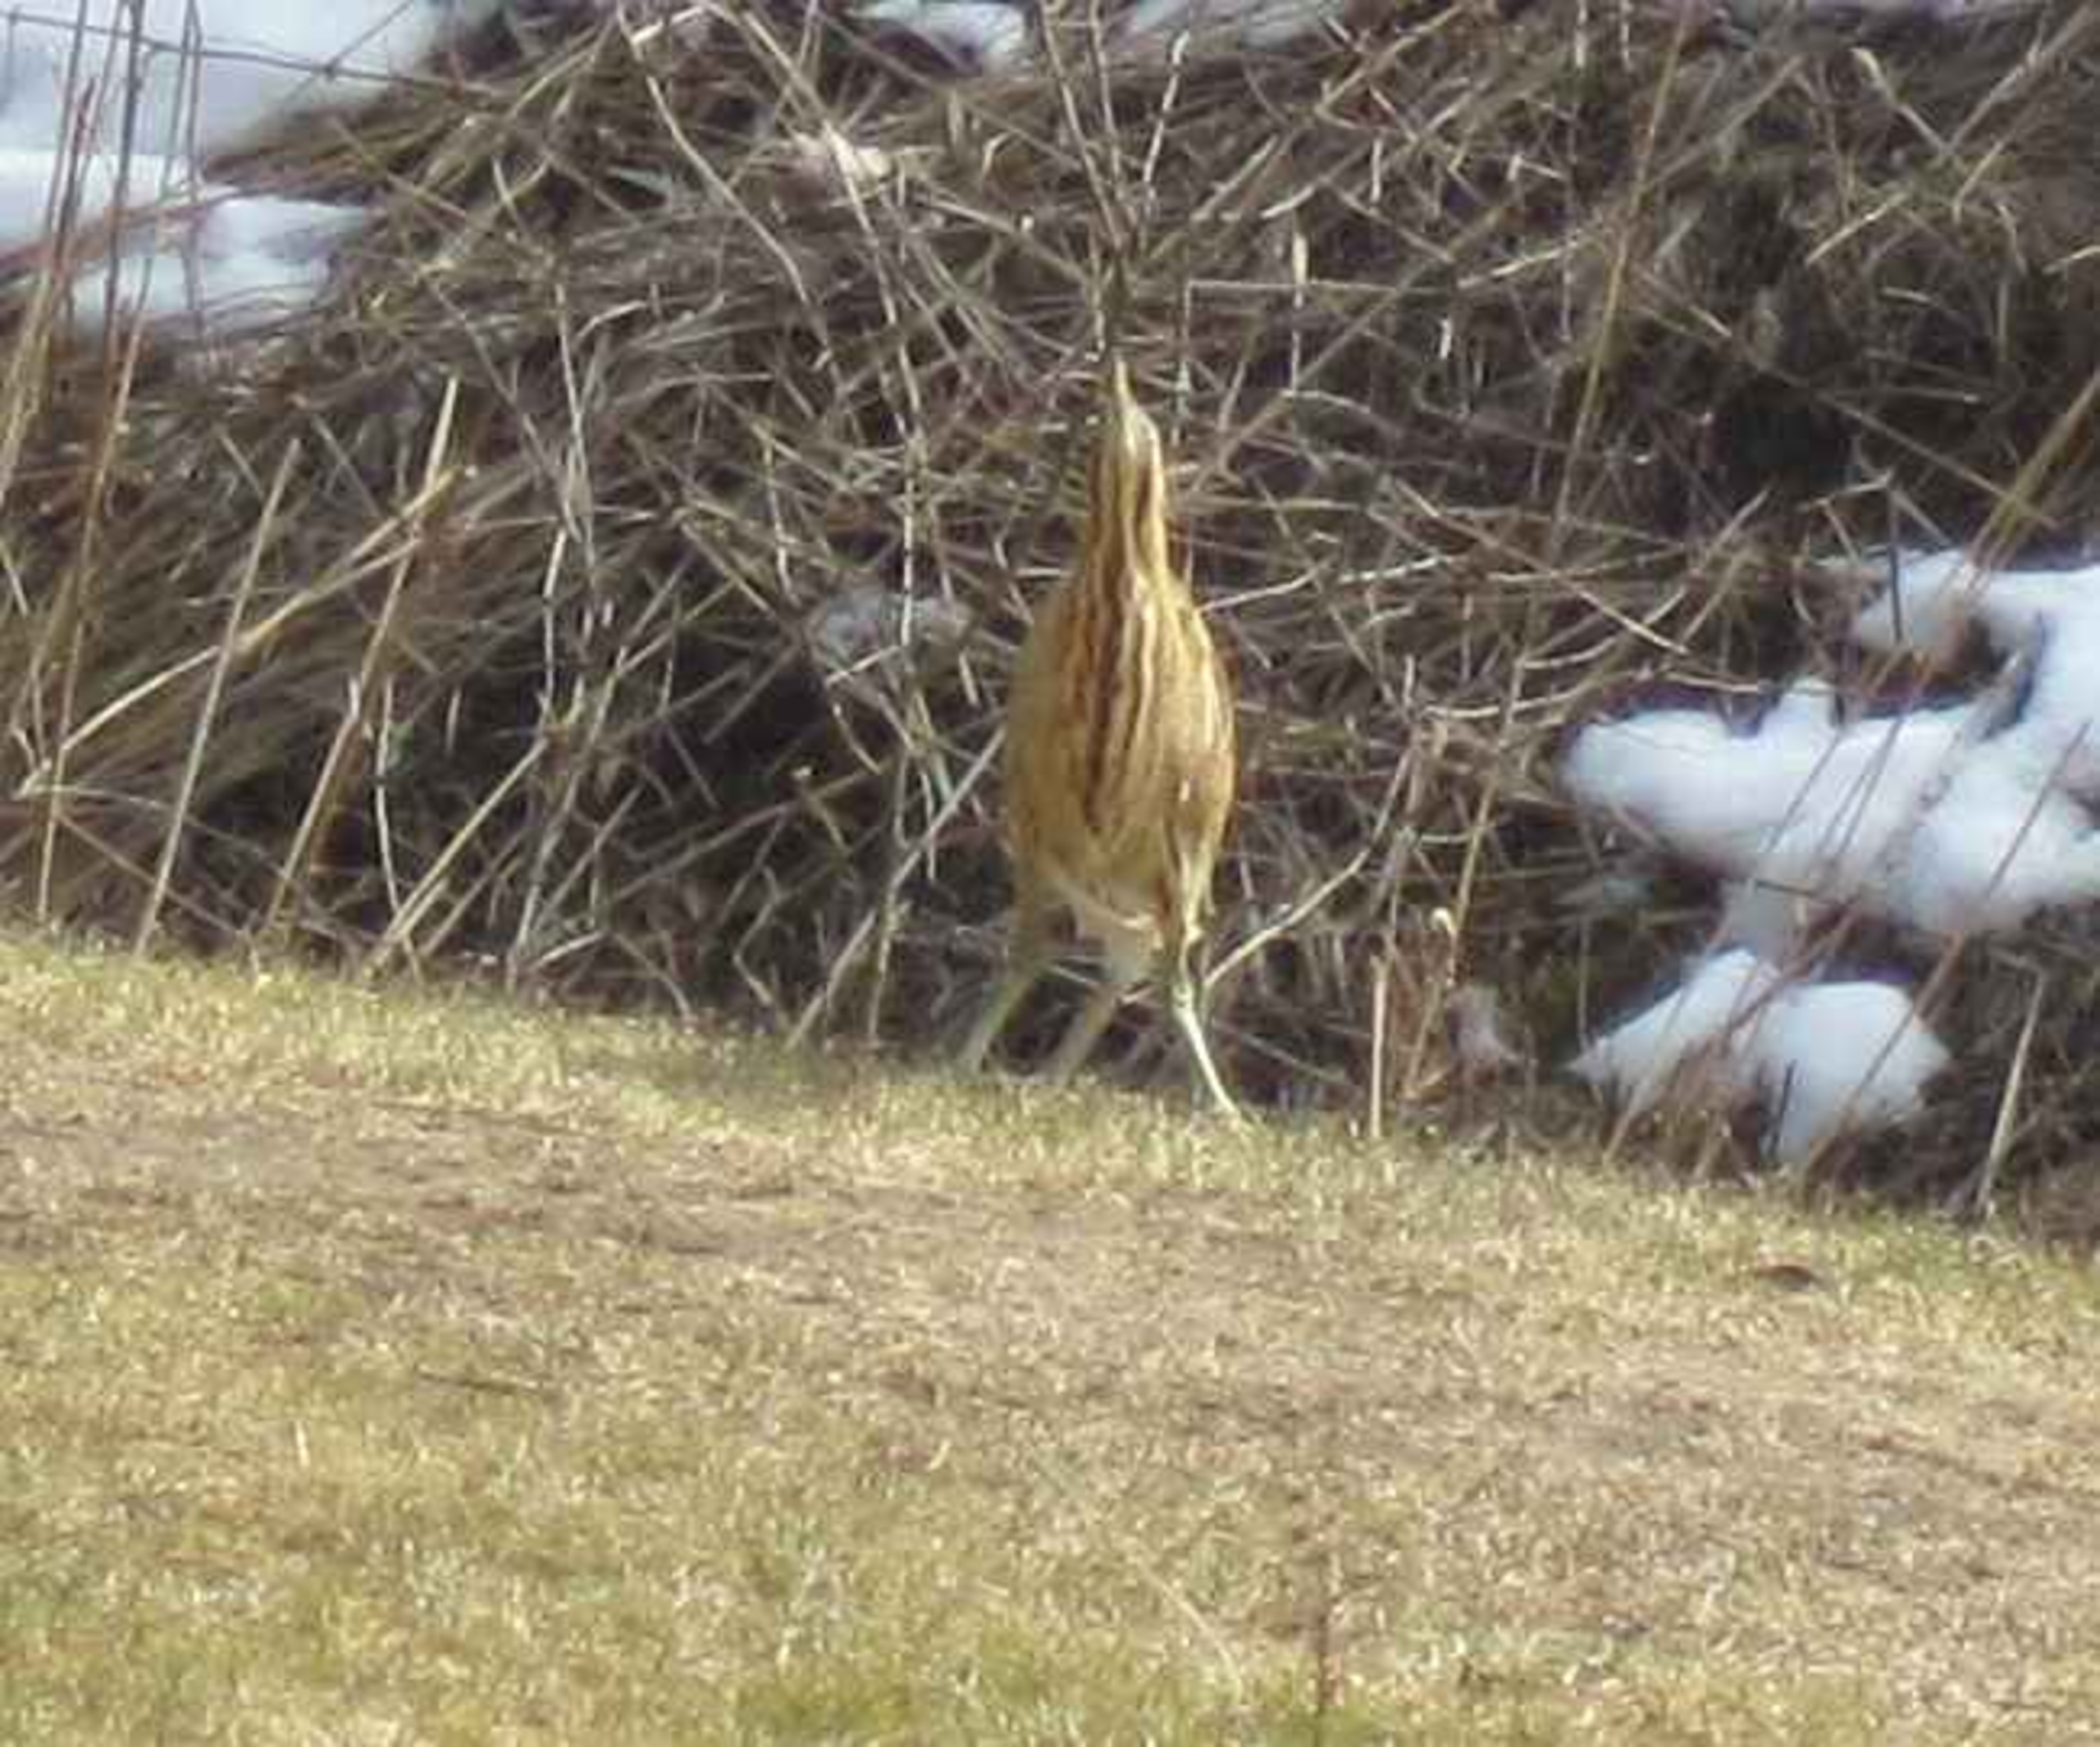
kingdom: Animalia
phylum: Chordata
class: Aves
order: Pelecaniformes
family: Ardeidae
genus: Botaurus
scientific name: Botaurus stellaris
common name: Rørdrum
